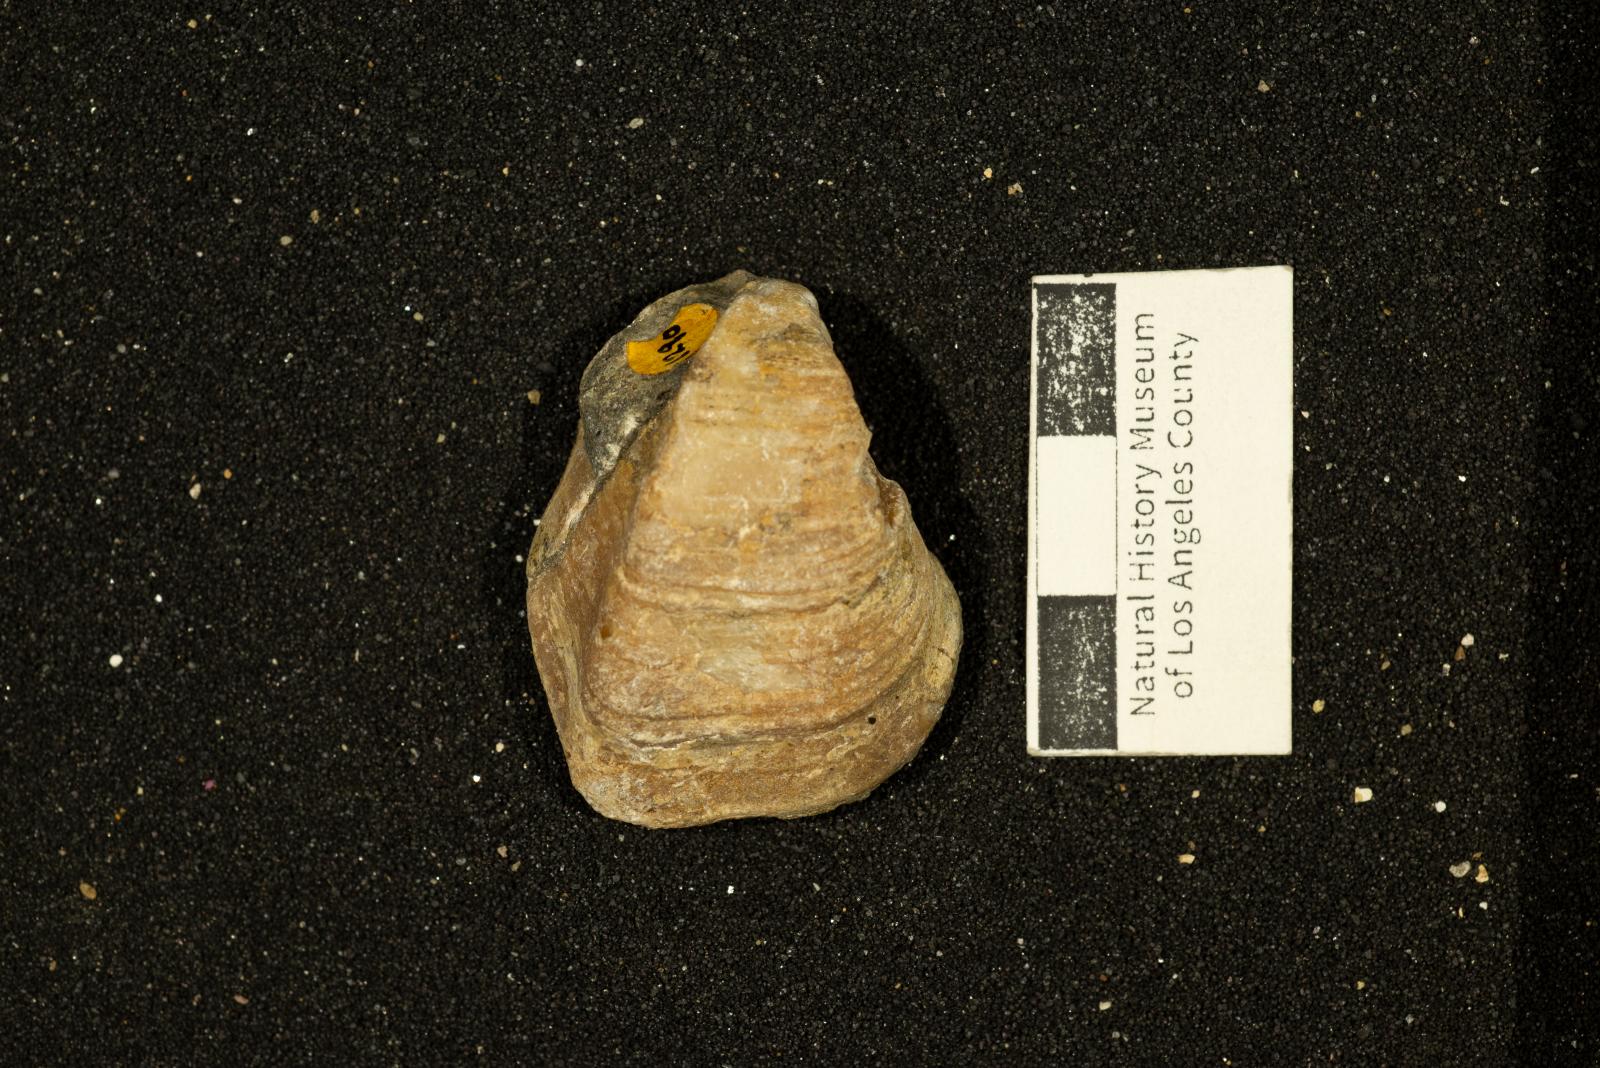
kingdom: Animalia
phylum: Mollusca
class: Bivalvia
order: Carditida
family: Astartidae
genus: Opis
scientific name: Opis popenoei
